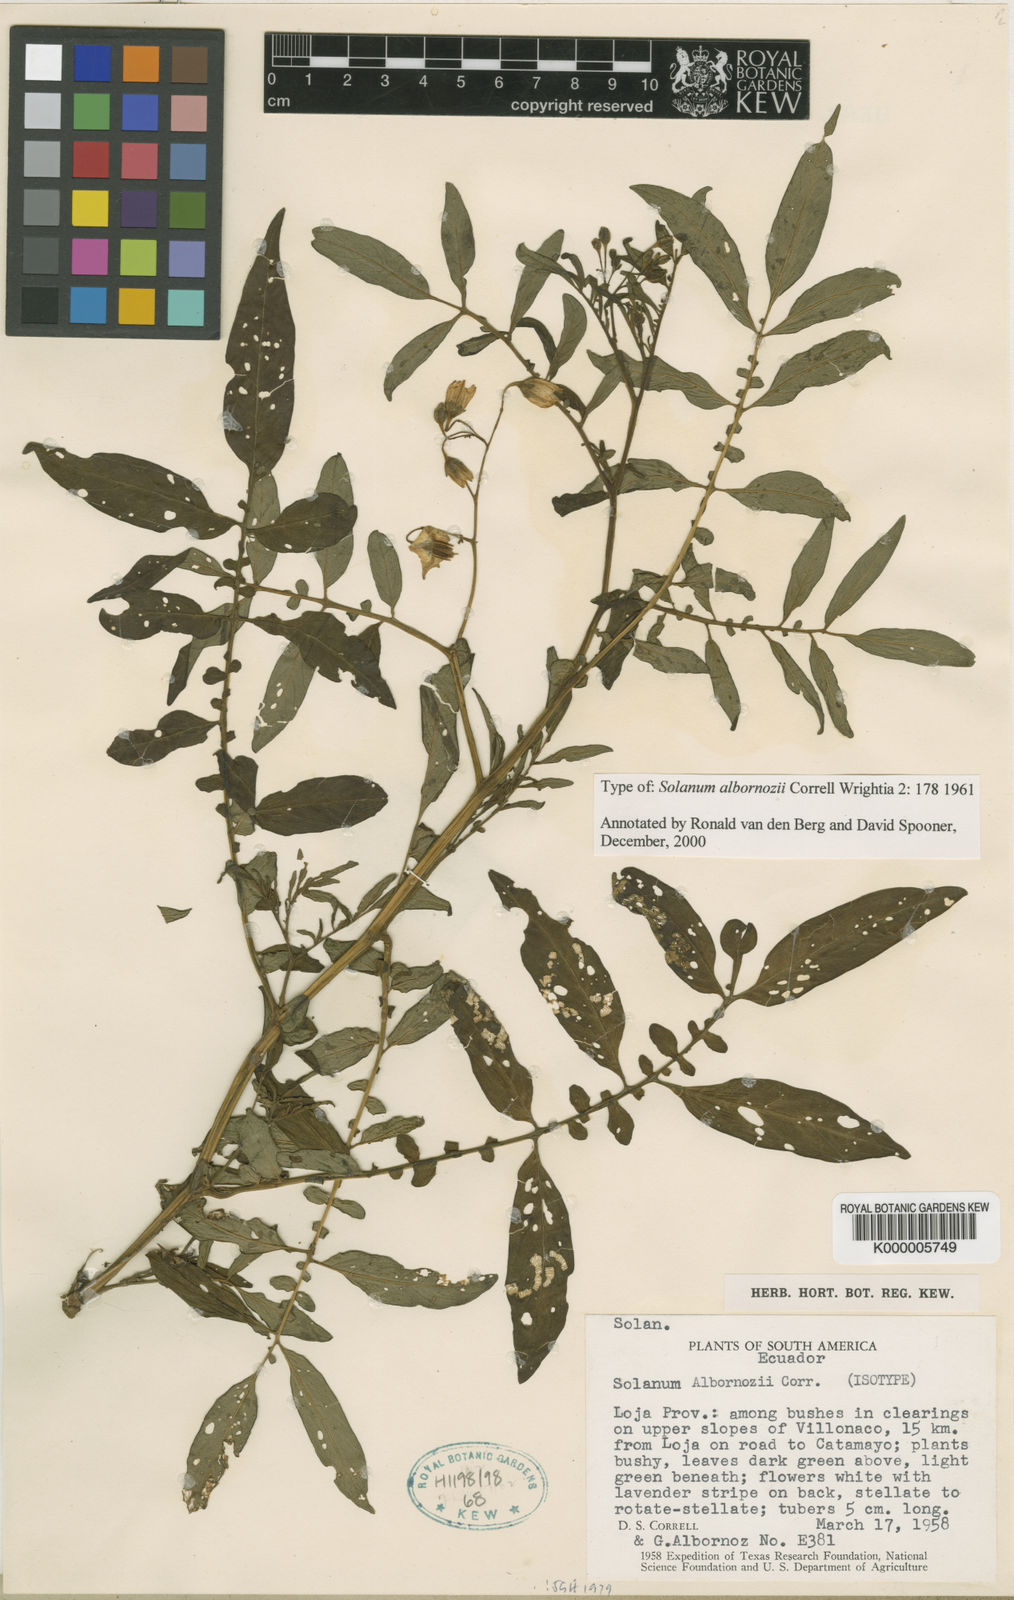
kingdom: Plantae
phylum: Tracheophyta
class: Magnoliopsida
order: Solanales
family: Solanaceae
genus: Solanum
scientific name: Solanum albornozii
